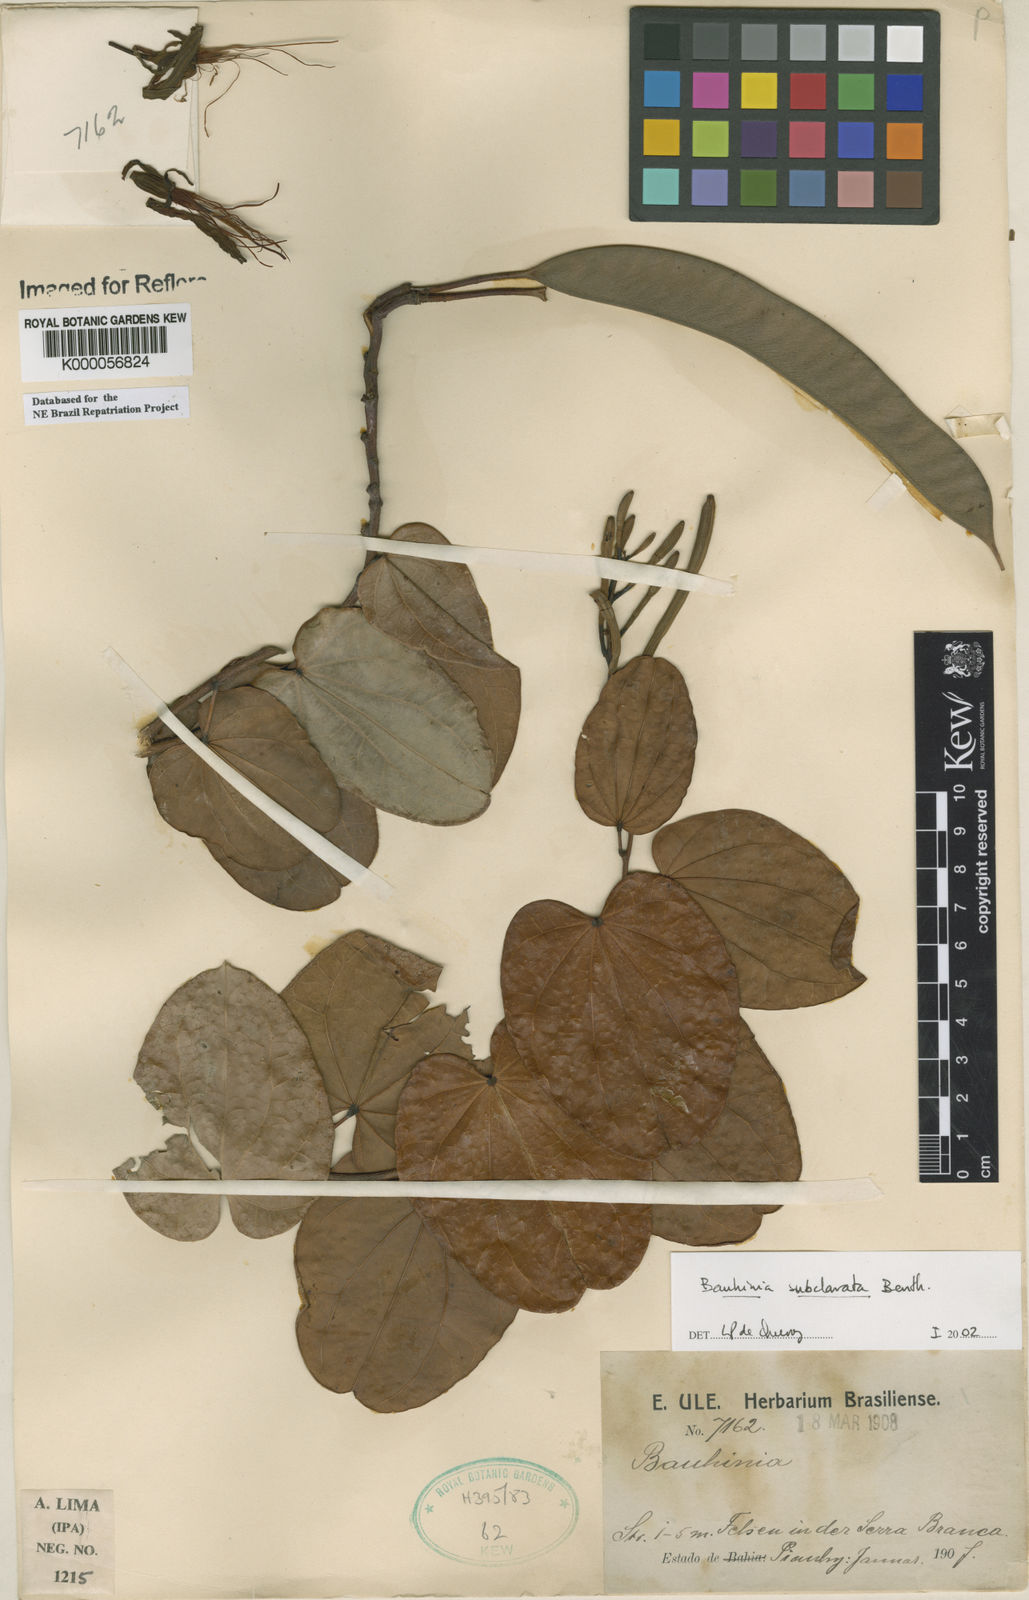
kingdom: Plantae
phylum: Tracheophyta
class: Magnoliopsida
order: Fabales
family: Fabaceae
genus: Bauhinia
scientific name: Bauhinia subclavata
